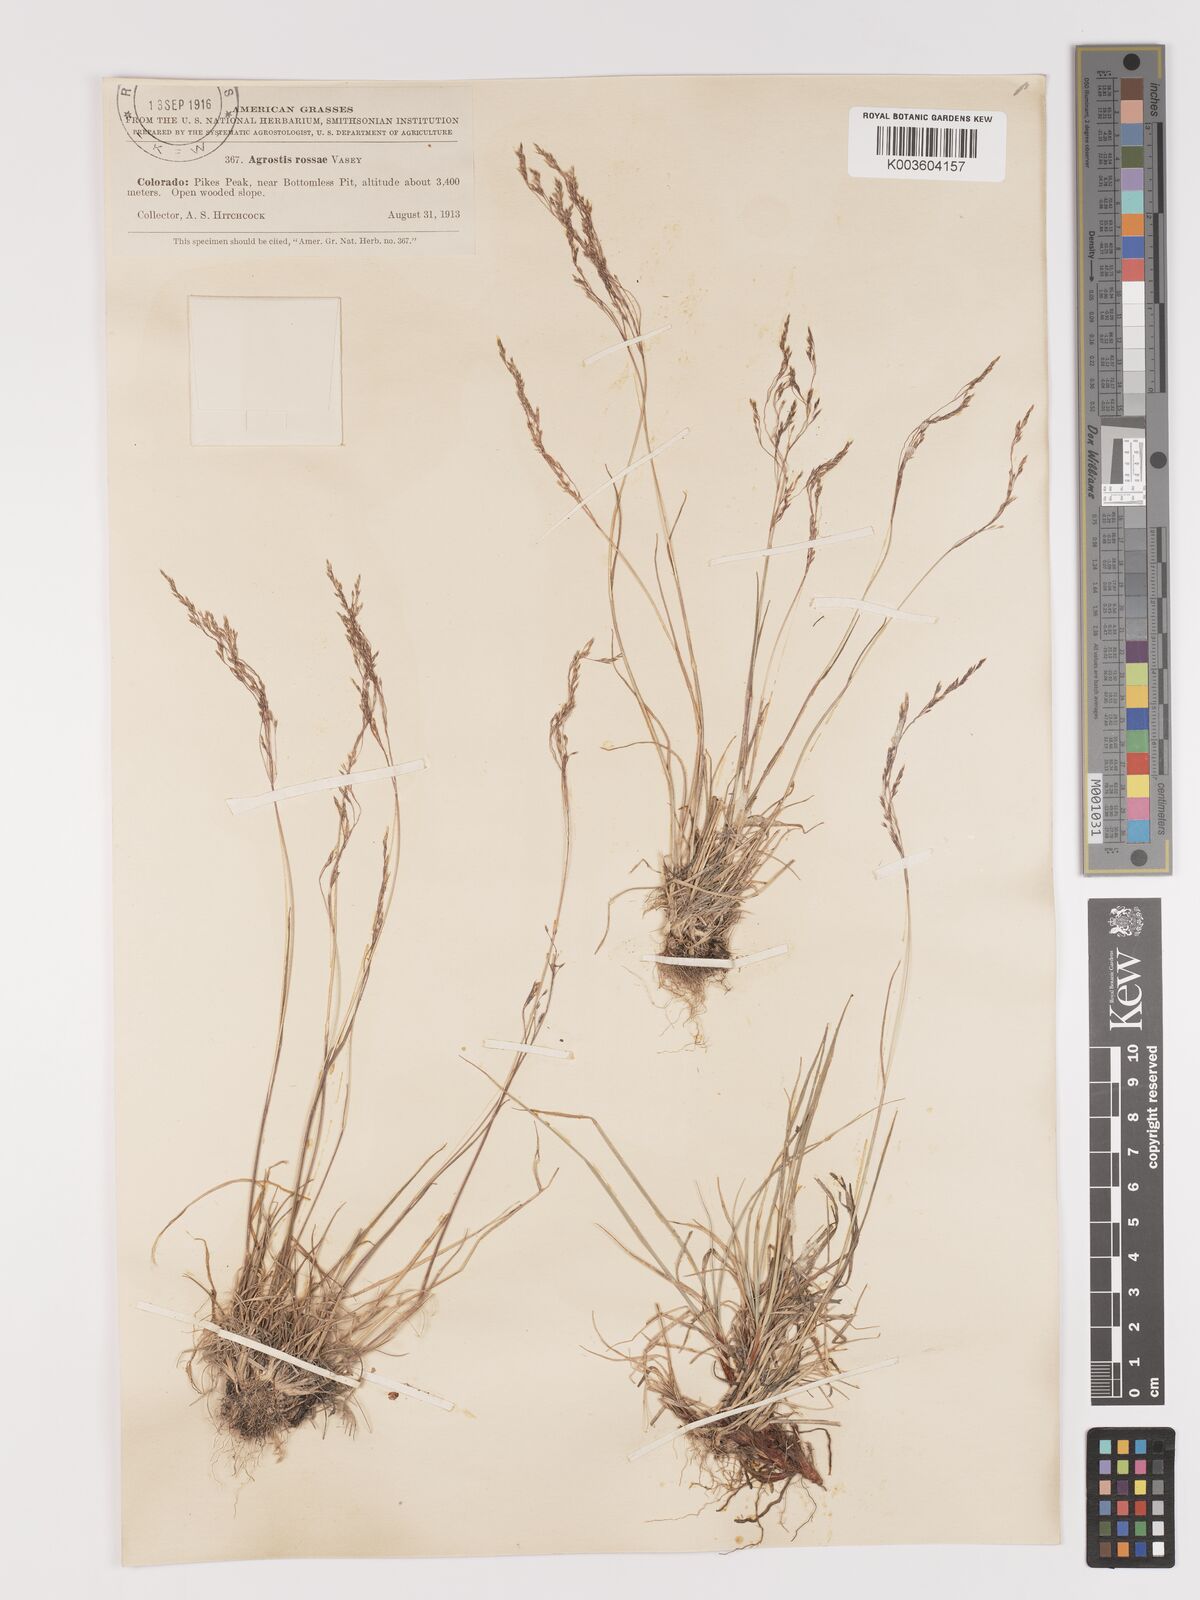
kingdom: Plantae
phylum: Tracheophyta
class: Liliopsida
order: Poales
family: Poaceae
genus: Agrostis
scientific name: Agrostis rossiae
